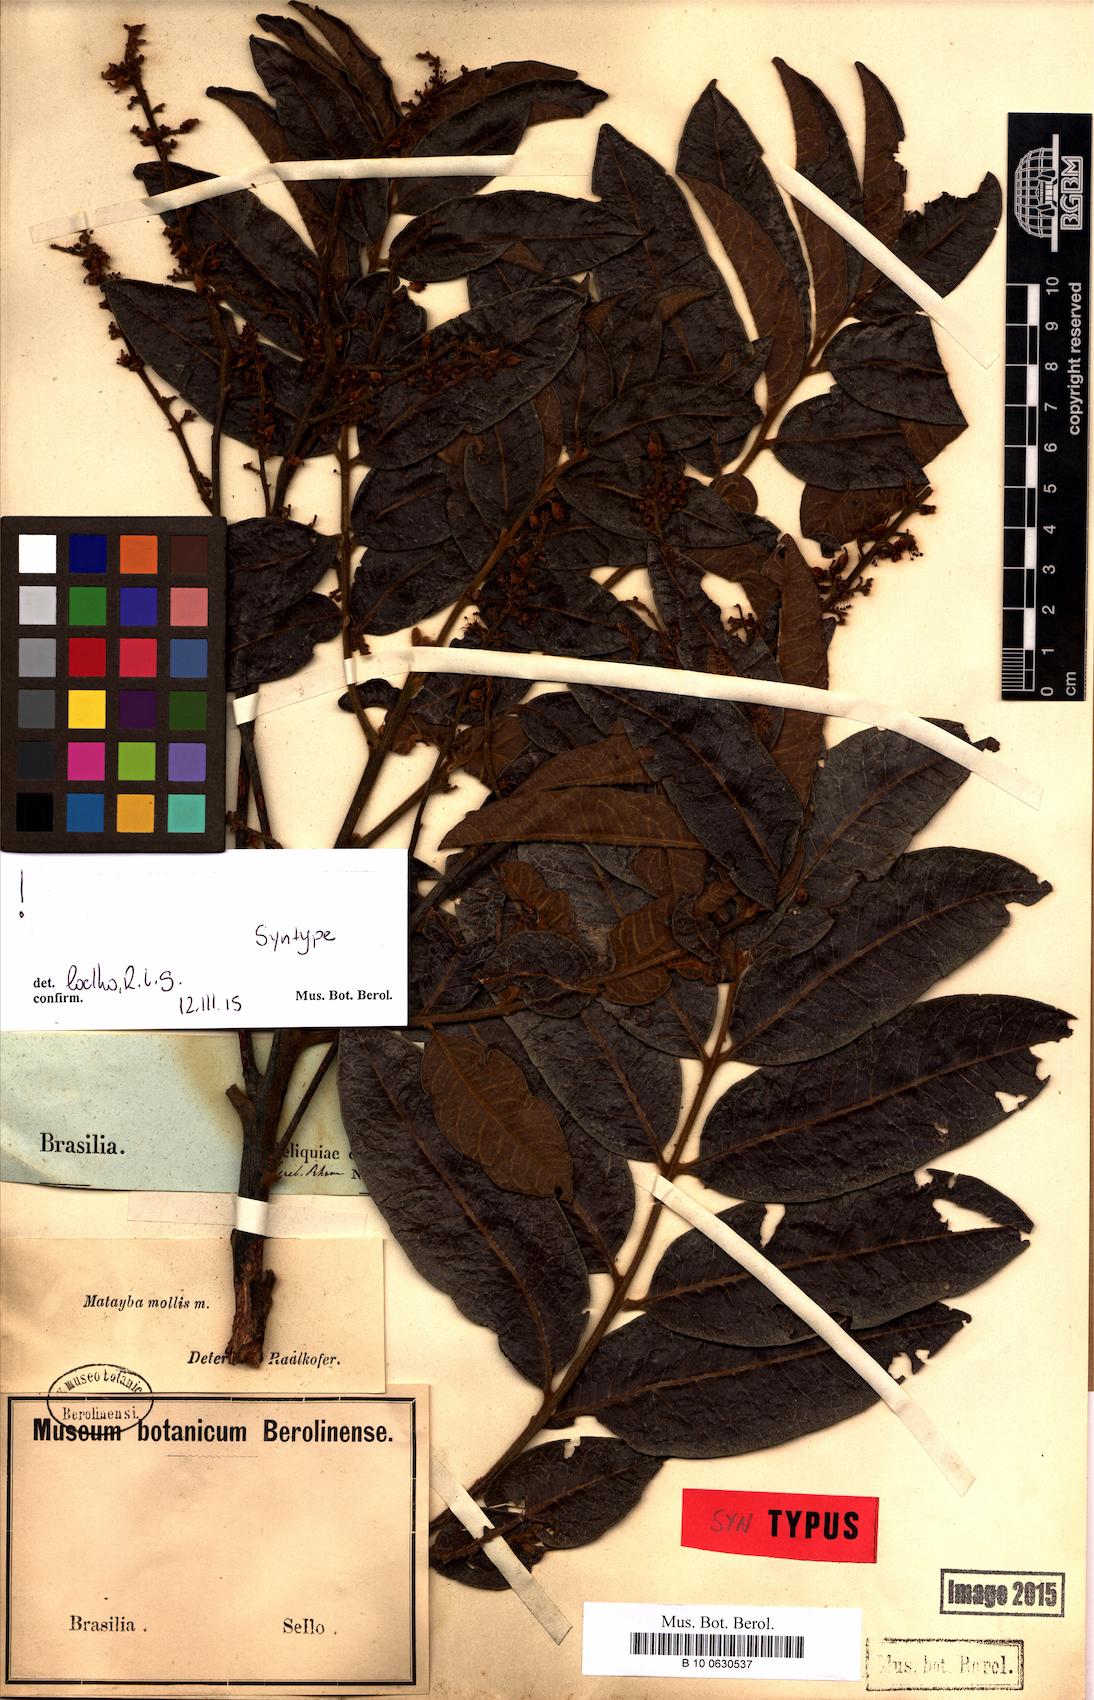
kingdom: Plantae
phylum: Tracheophyta
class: Magnoliopsida
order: Sapindales
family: Sapindaceae
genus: Matayba
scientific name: Matayba mollis
